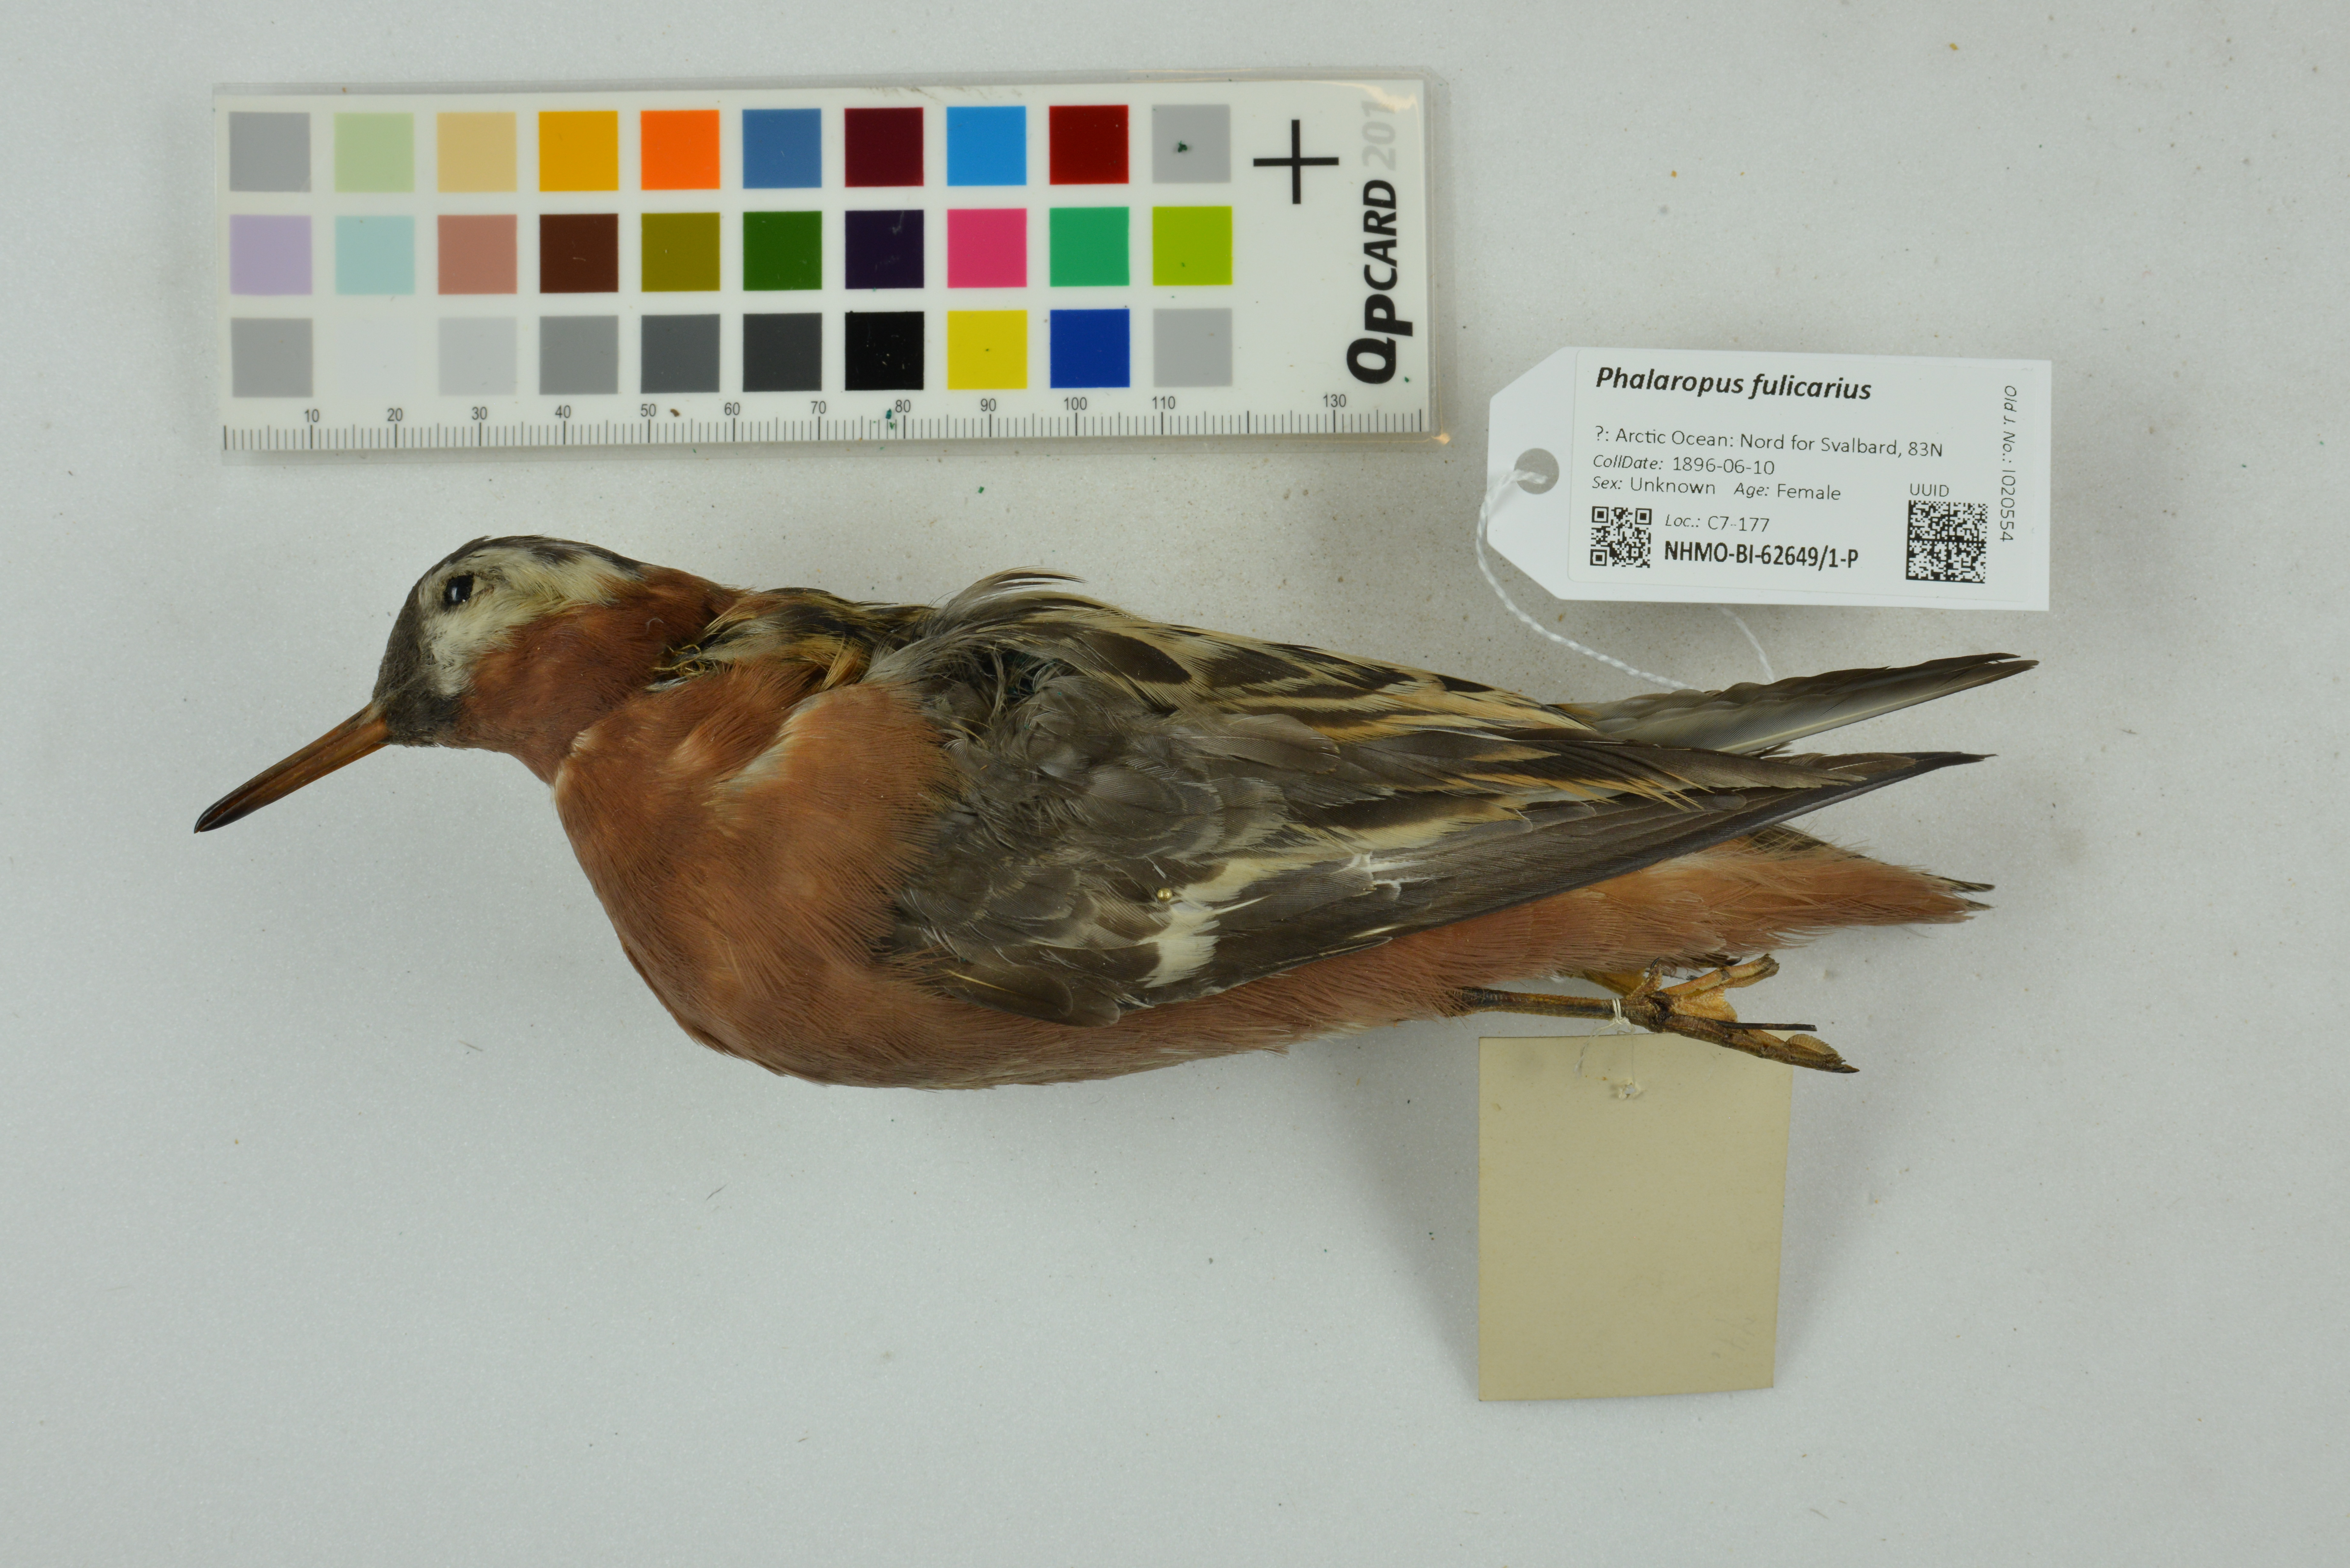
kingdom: Animalia
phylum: Chordata
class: Aves
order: Charadriiformes
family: Scolopacidae
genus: Phalaropus
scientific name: Phalaropus fulicarius
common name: Red phalarope
